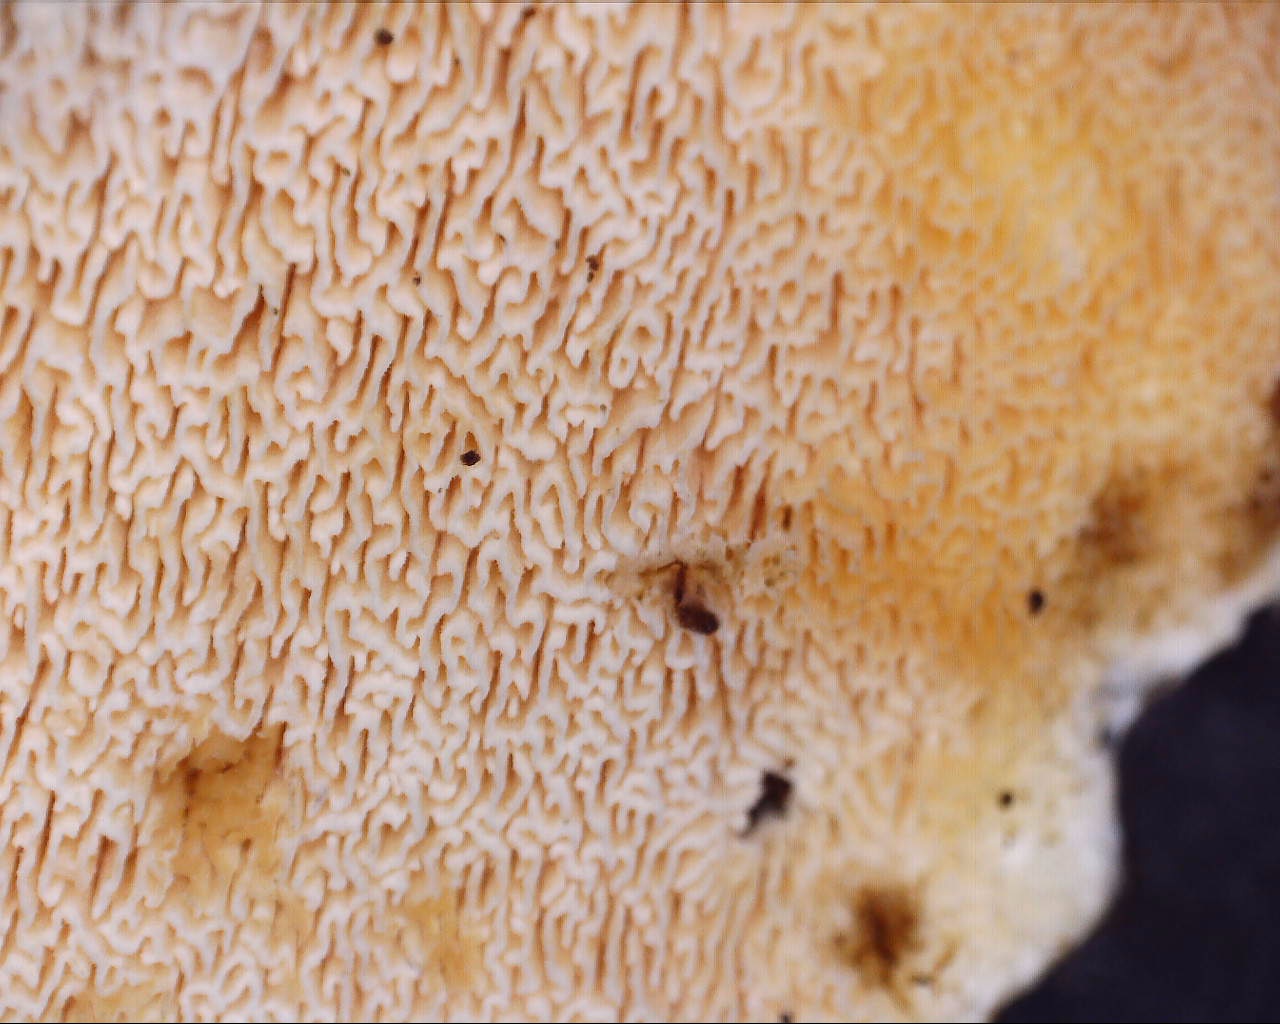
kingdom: Fungi
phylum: Basidiomycota
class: Agaricomycetes
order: Corticiales
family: Corticiaceae
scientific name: Corticiaceae
